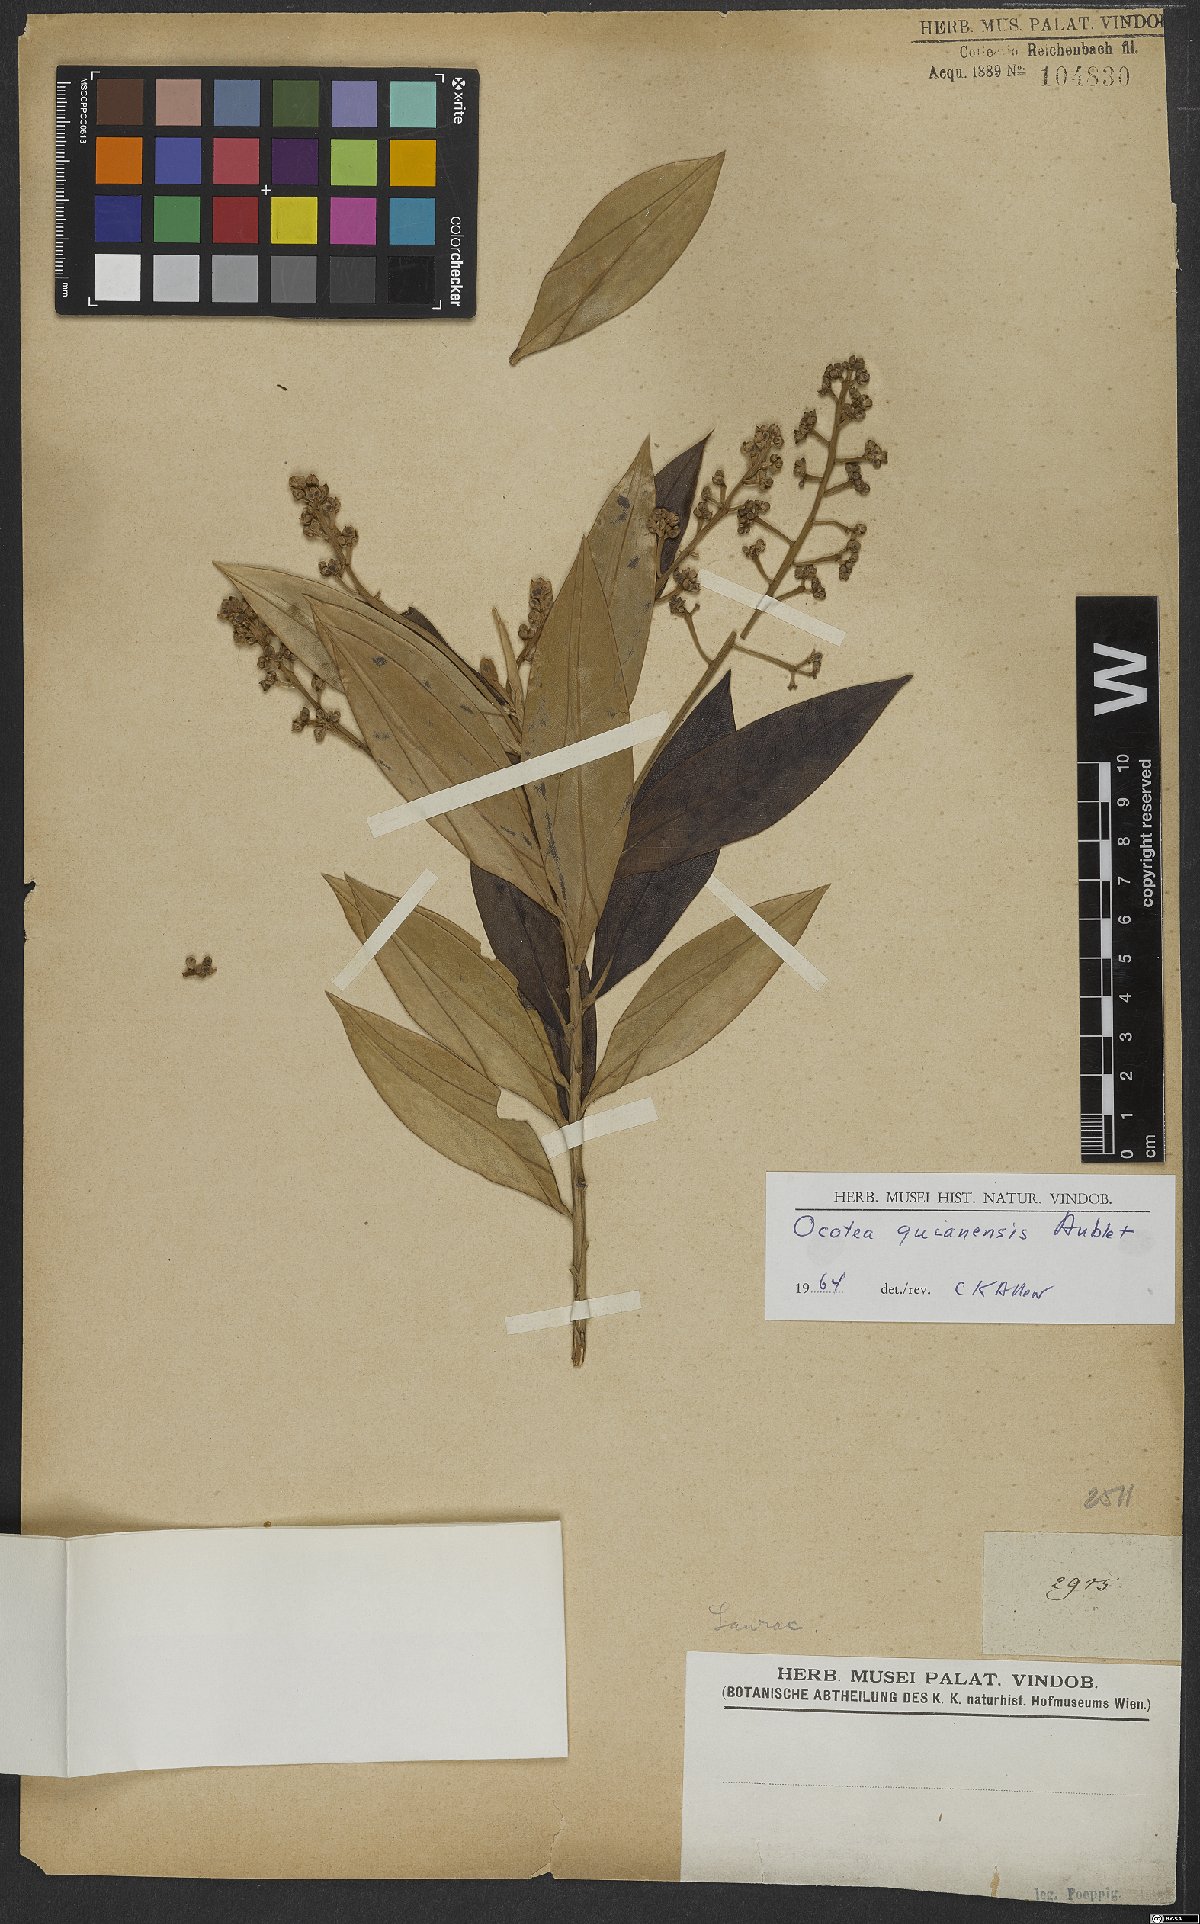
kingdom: Plantae
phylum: Tracheophyta
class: Magnoliopsida
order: Laurales
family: Lauraceae
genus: Ocotea
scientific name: Ocotea guianensis
